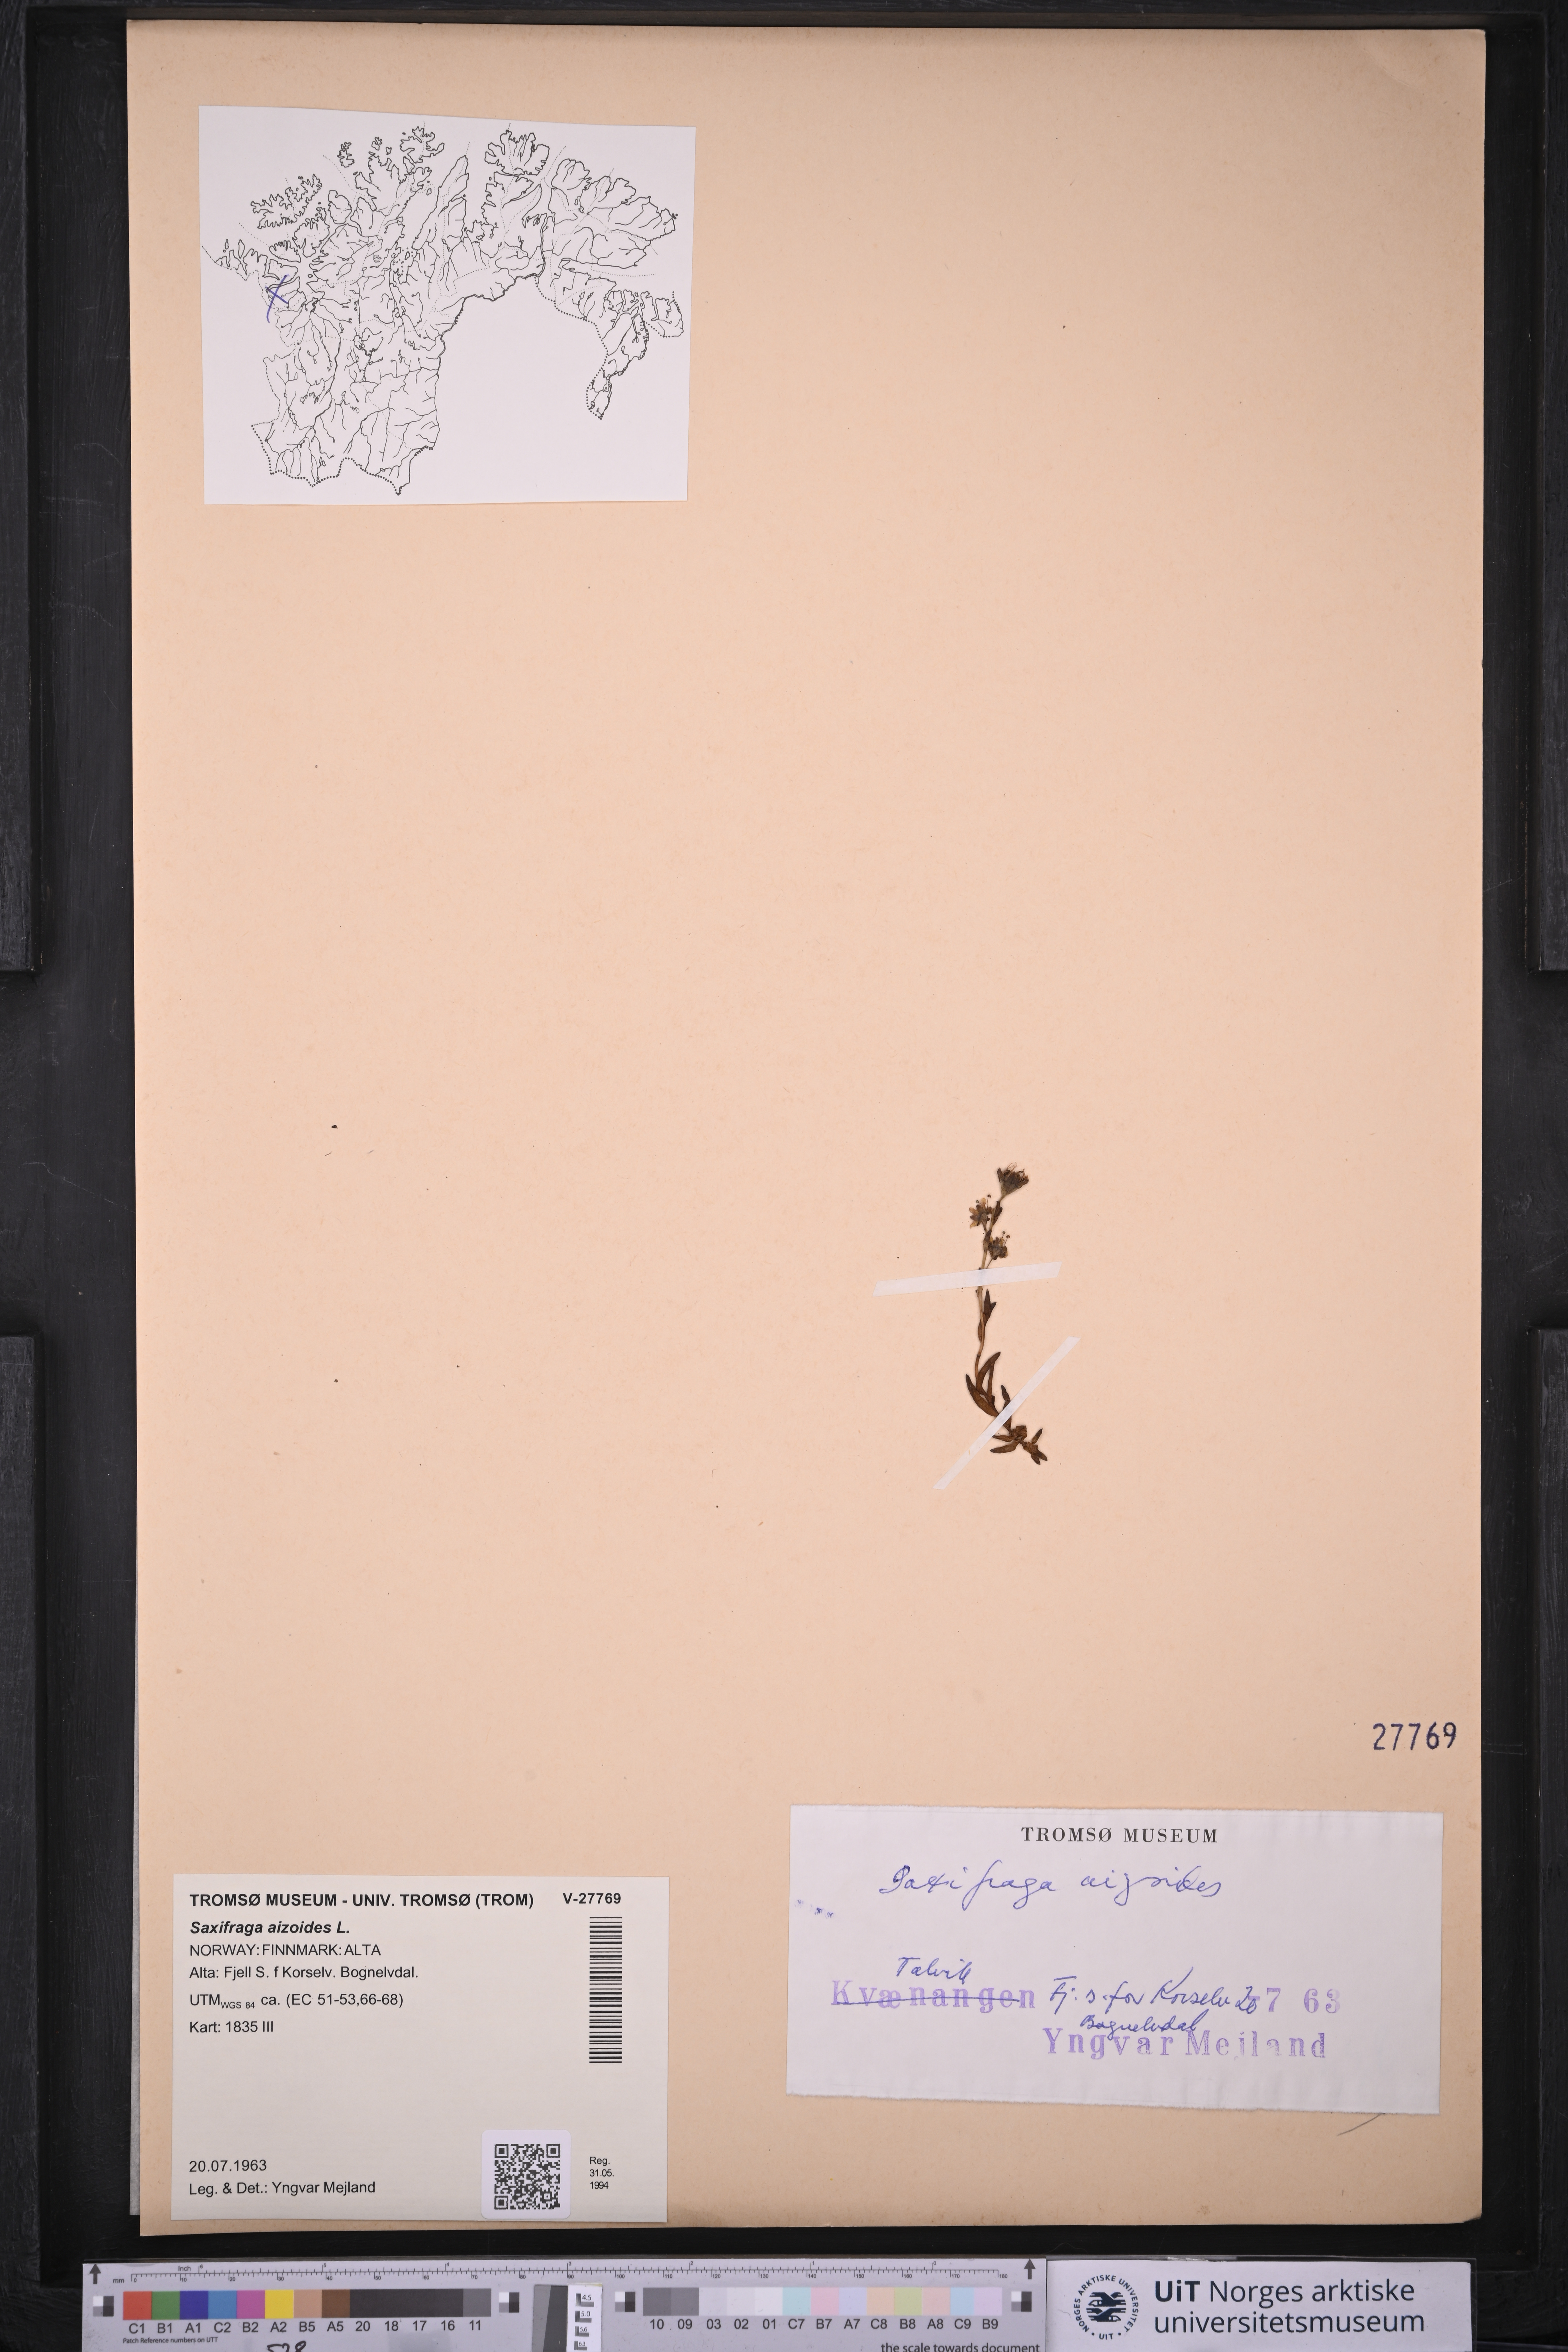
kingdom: Plantae
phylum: Tracheophyta
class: Magnoliopsida
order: Saxifragales
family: Saxifragaceae
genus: Saxifraga
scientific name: Saxifraga aizoides
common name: Yellow mountain saxifrage
